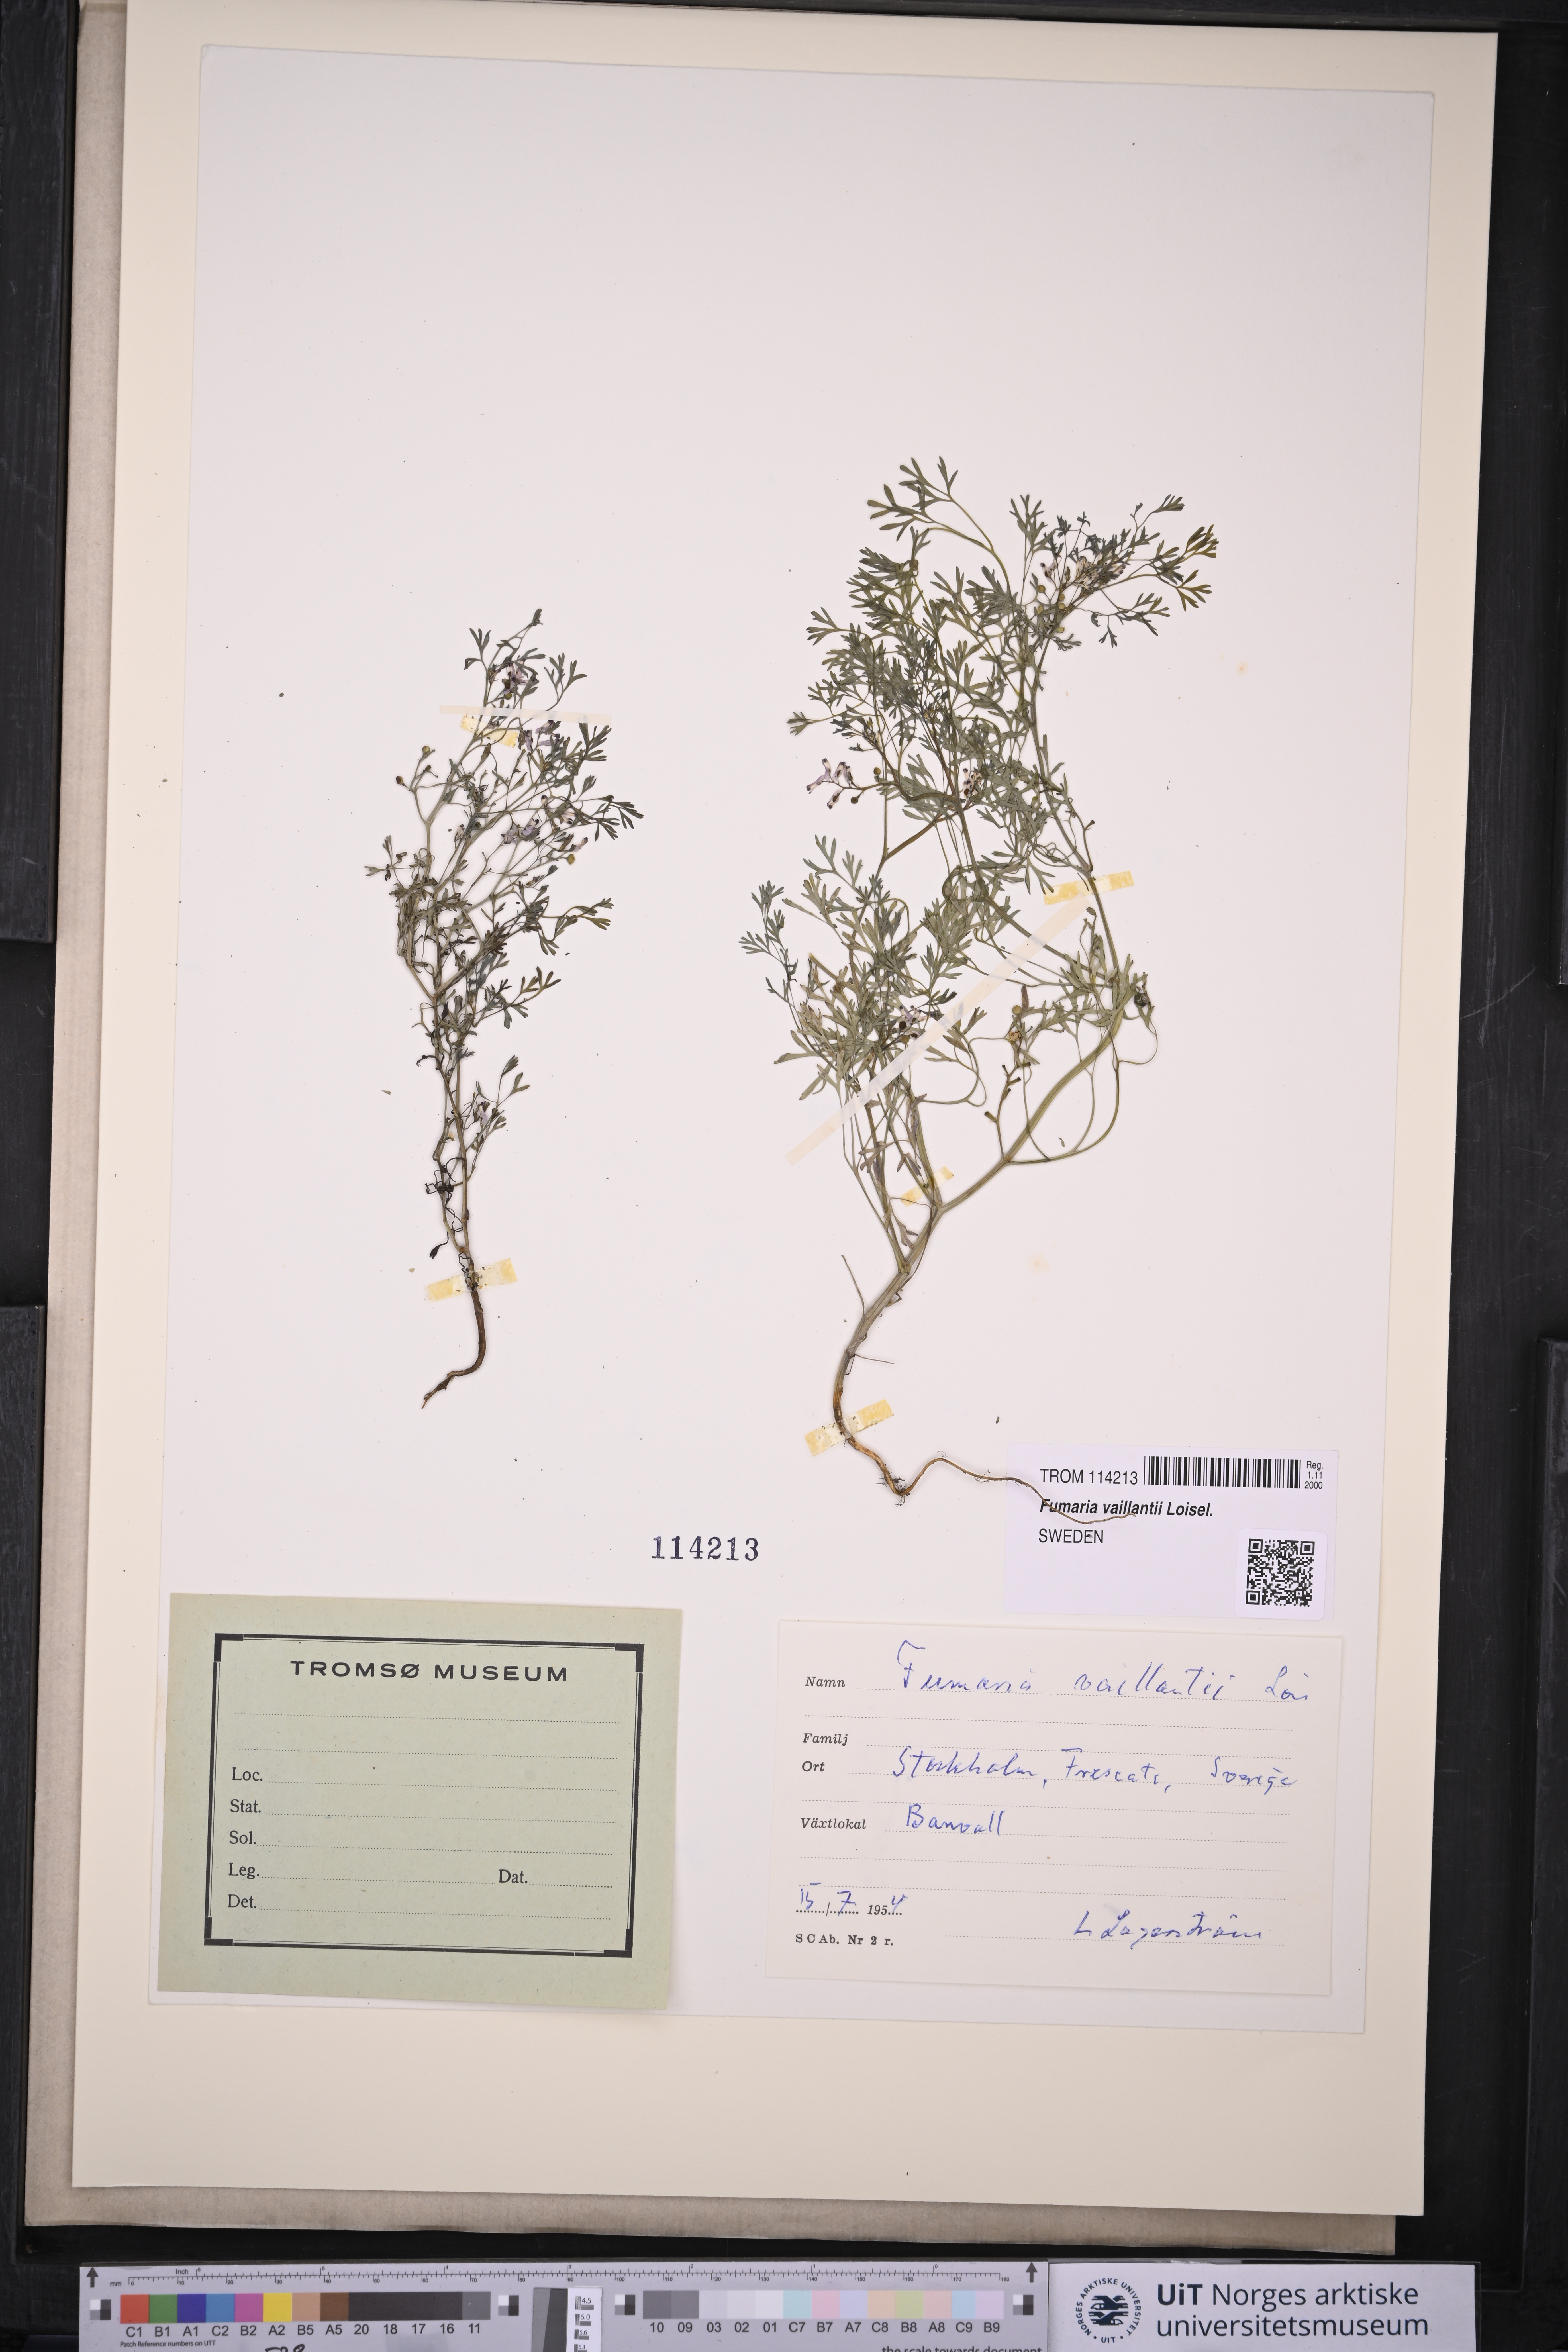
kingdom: Plantae
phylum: Tracheophyta
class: Magnoliopsida
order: Ranunculales
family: Papaveraceae
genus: Fumaria
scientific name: Fumaria vaillantii
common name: Few-flowered fumitory
